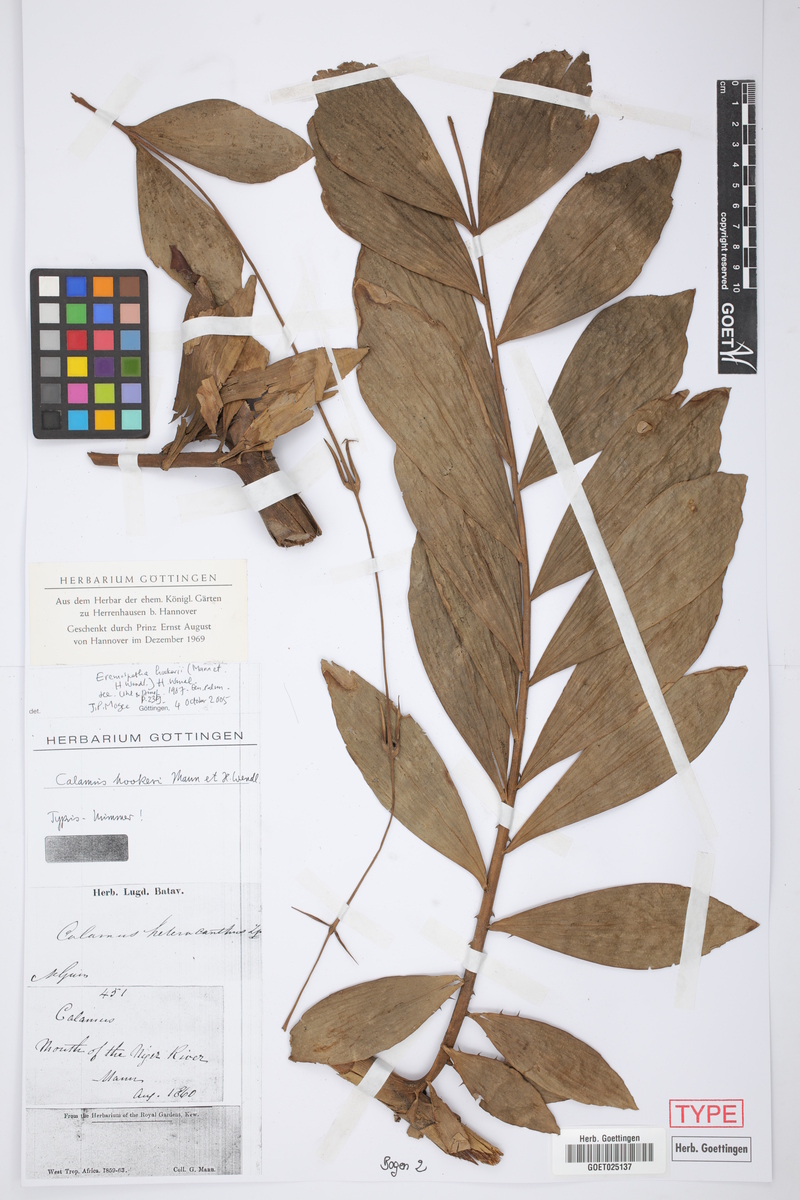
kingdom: Plantae
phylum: Tracheophyta
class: Liliopsida
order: Arecales
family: Arecaceae
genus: Eremospatha
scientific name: Eremospatha hookeri
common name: Rattan
